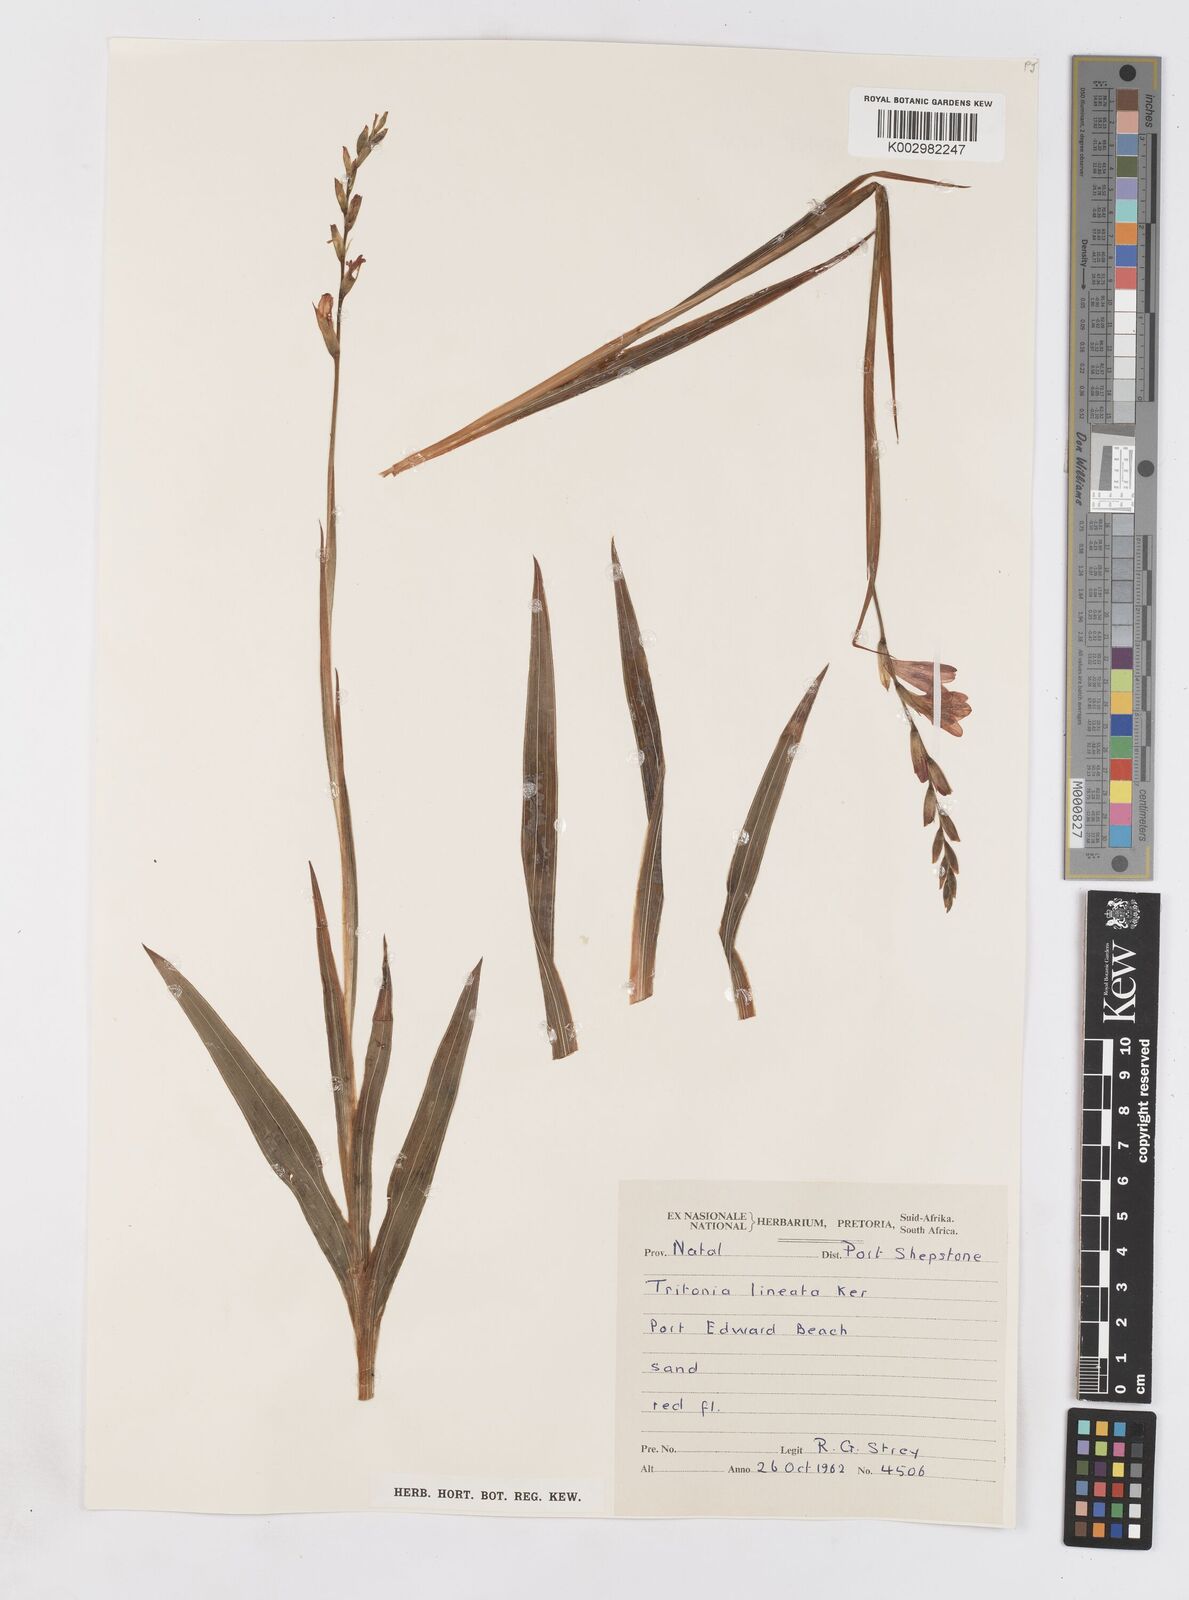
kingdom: Plantae
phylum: Tracheophyta
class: Liliopsida
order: Asparagales
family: Iridaceae
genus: Tritonia
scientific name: Tritonia gladiolaris
